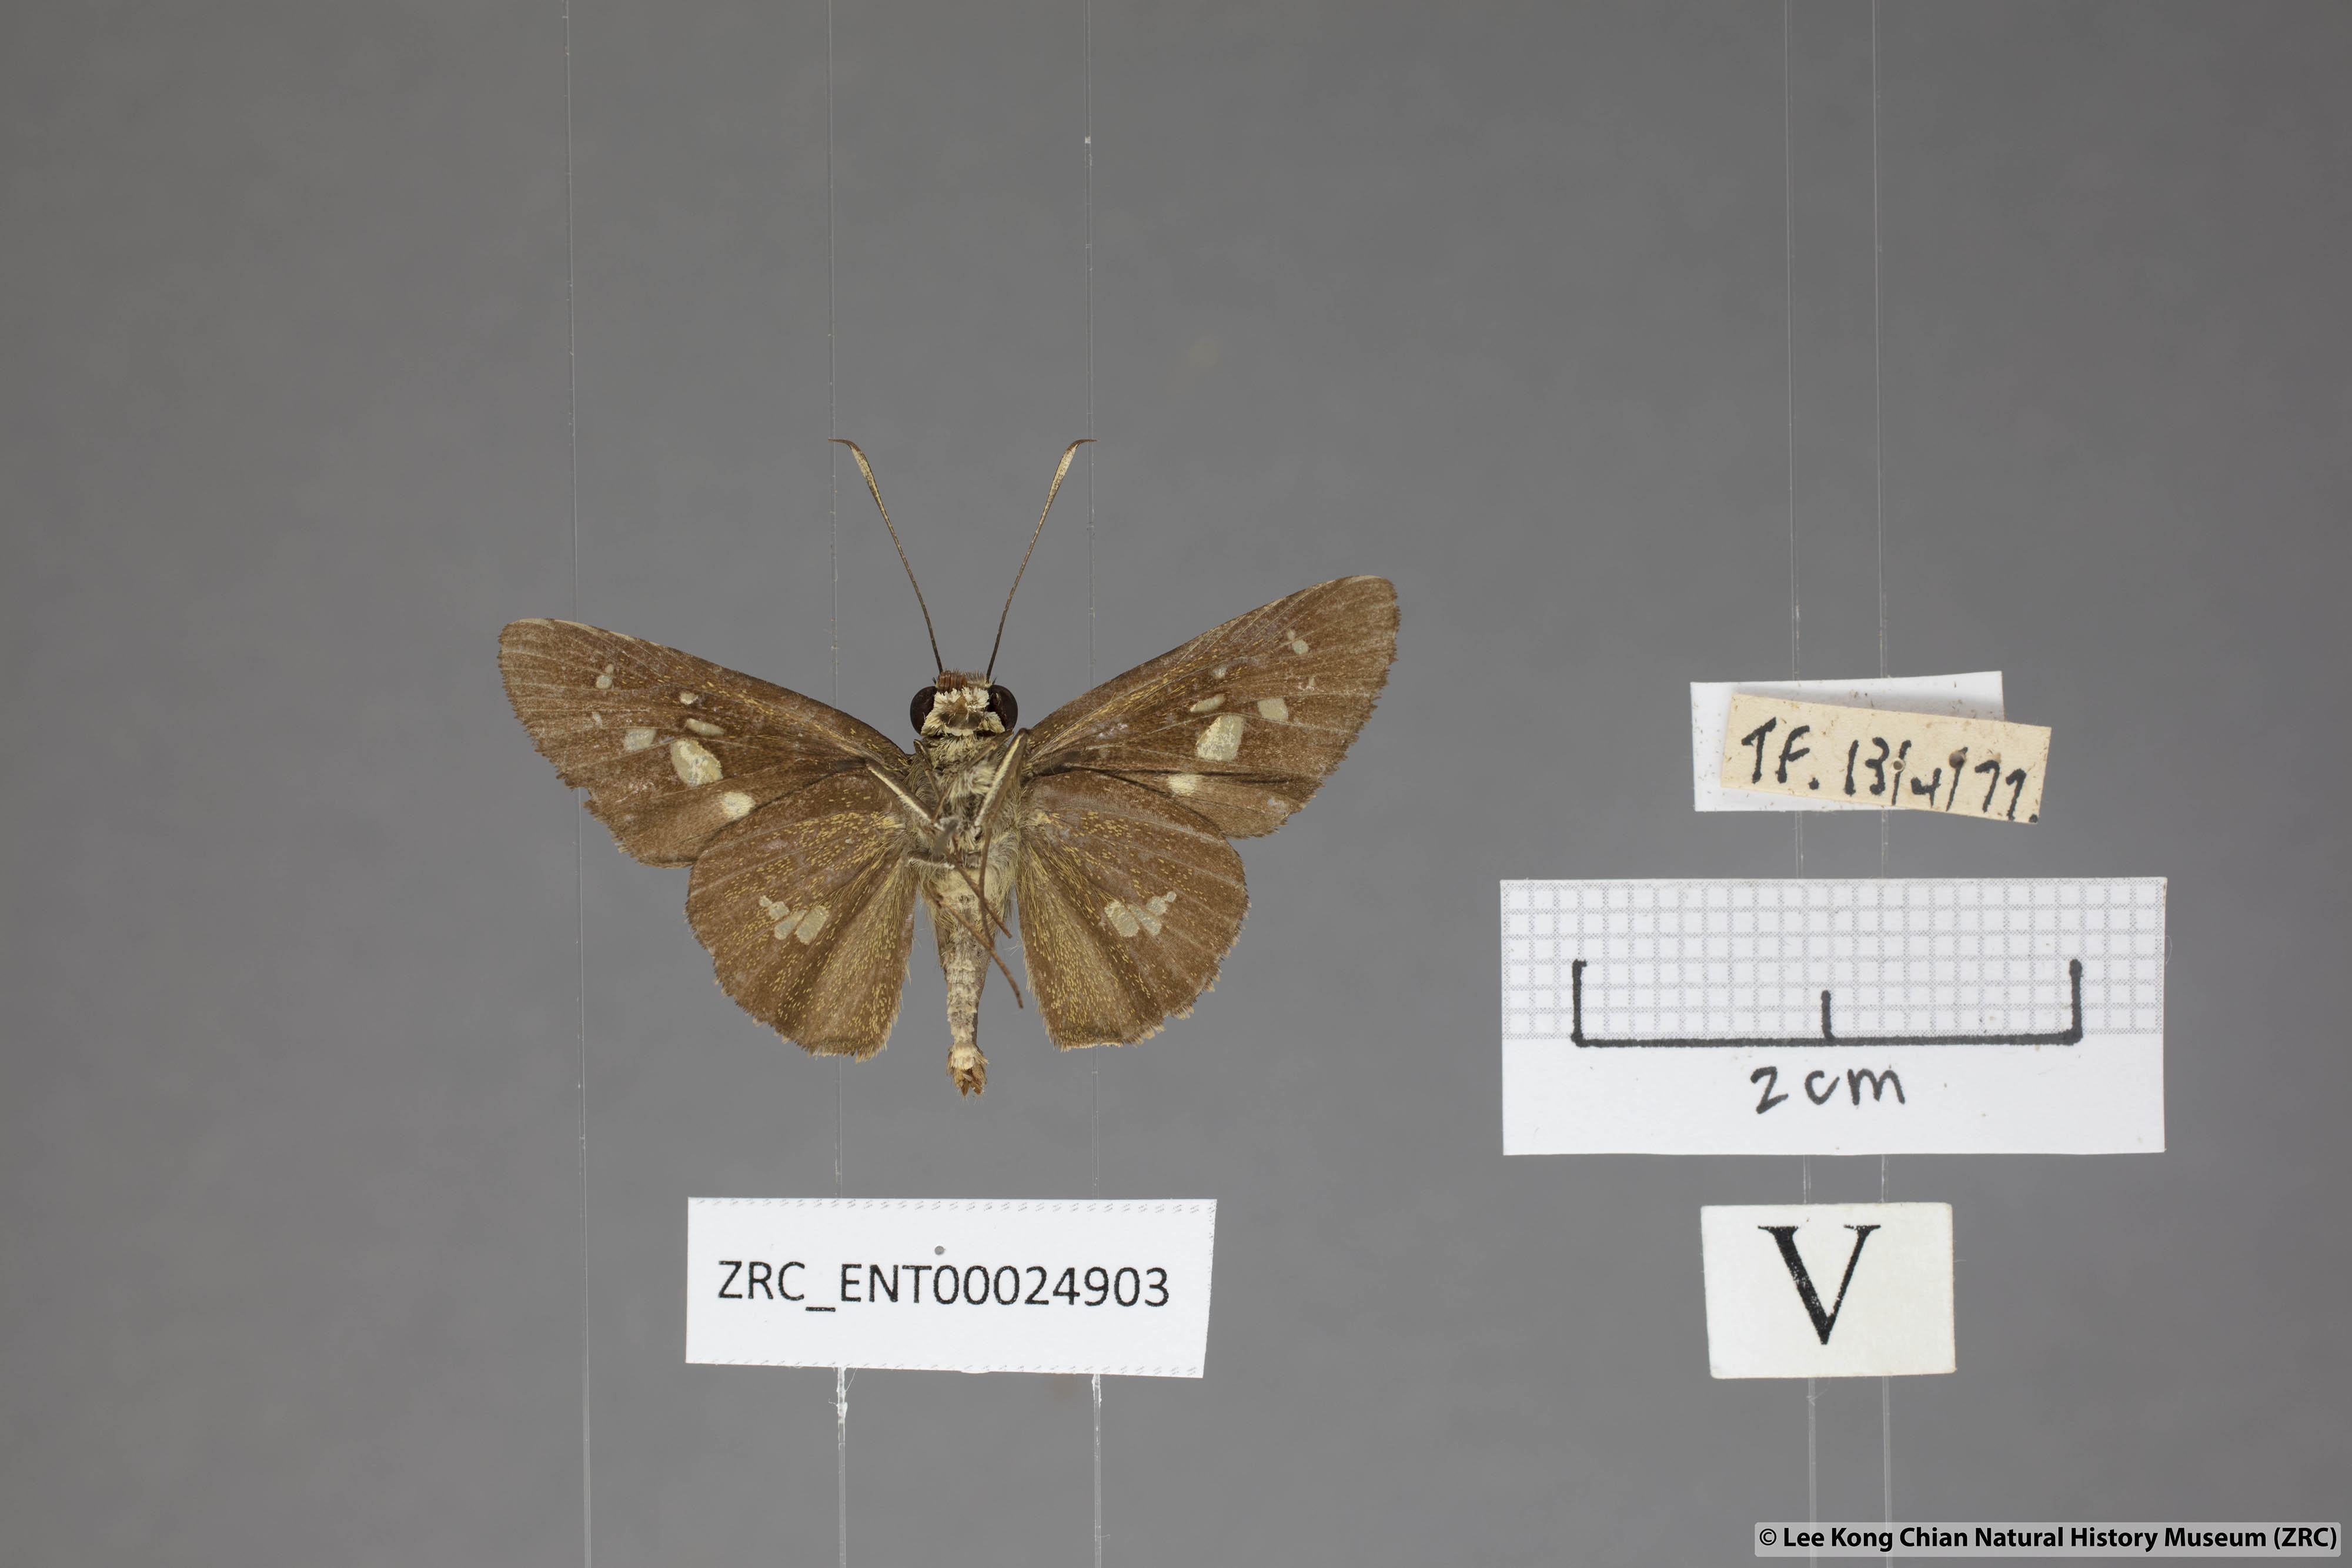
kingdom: Animalia
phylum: Arthropoda
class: Insecta
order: Lepidoptera
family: Hesperiidae
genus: Isma
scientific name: Isma umbrosa
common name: Large long-banded flitter
